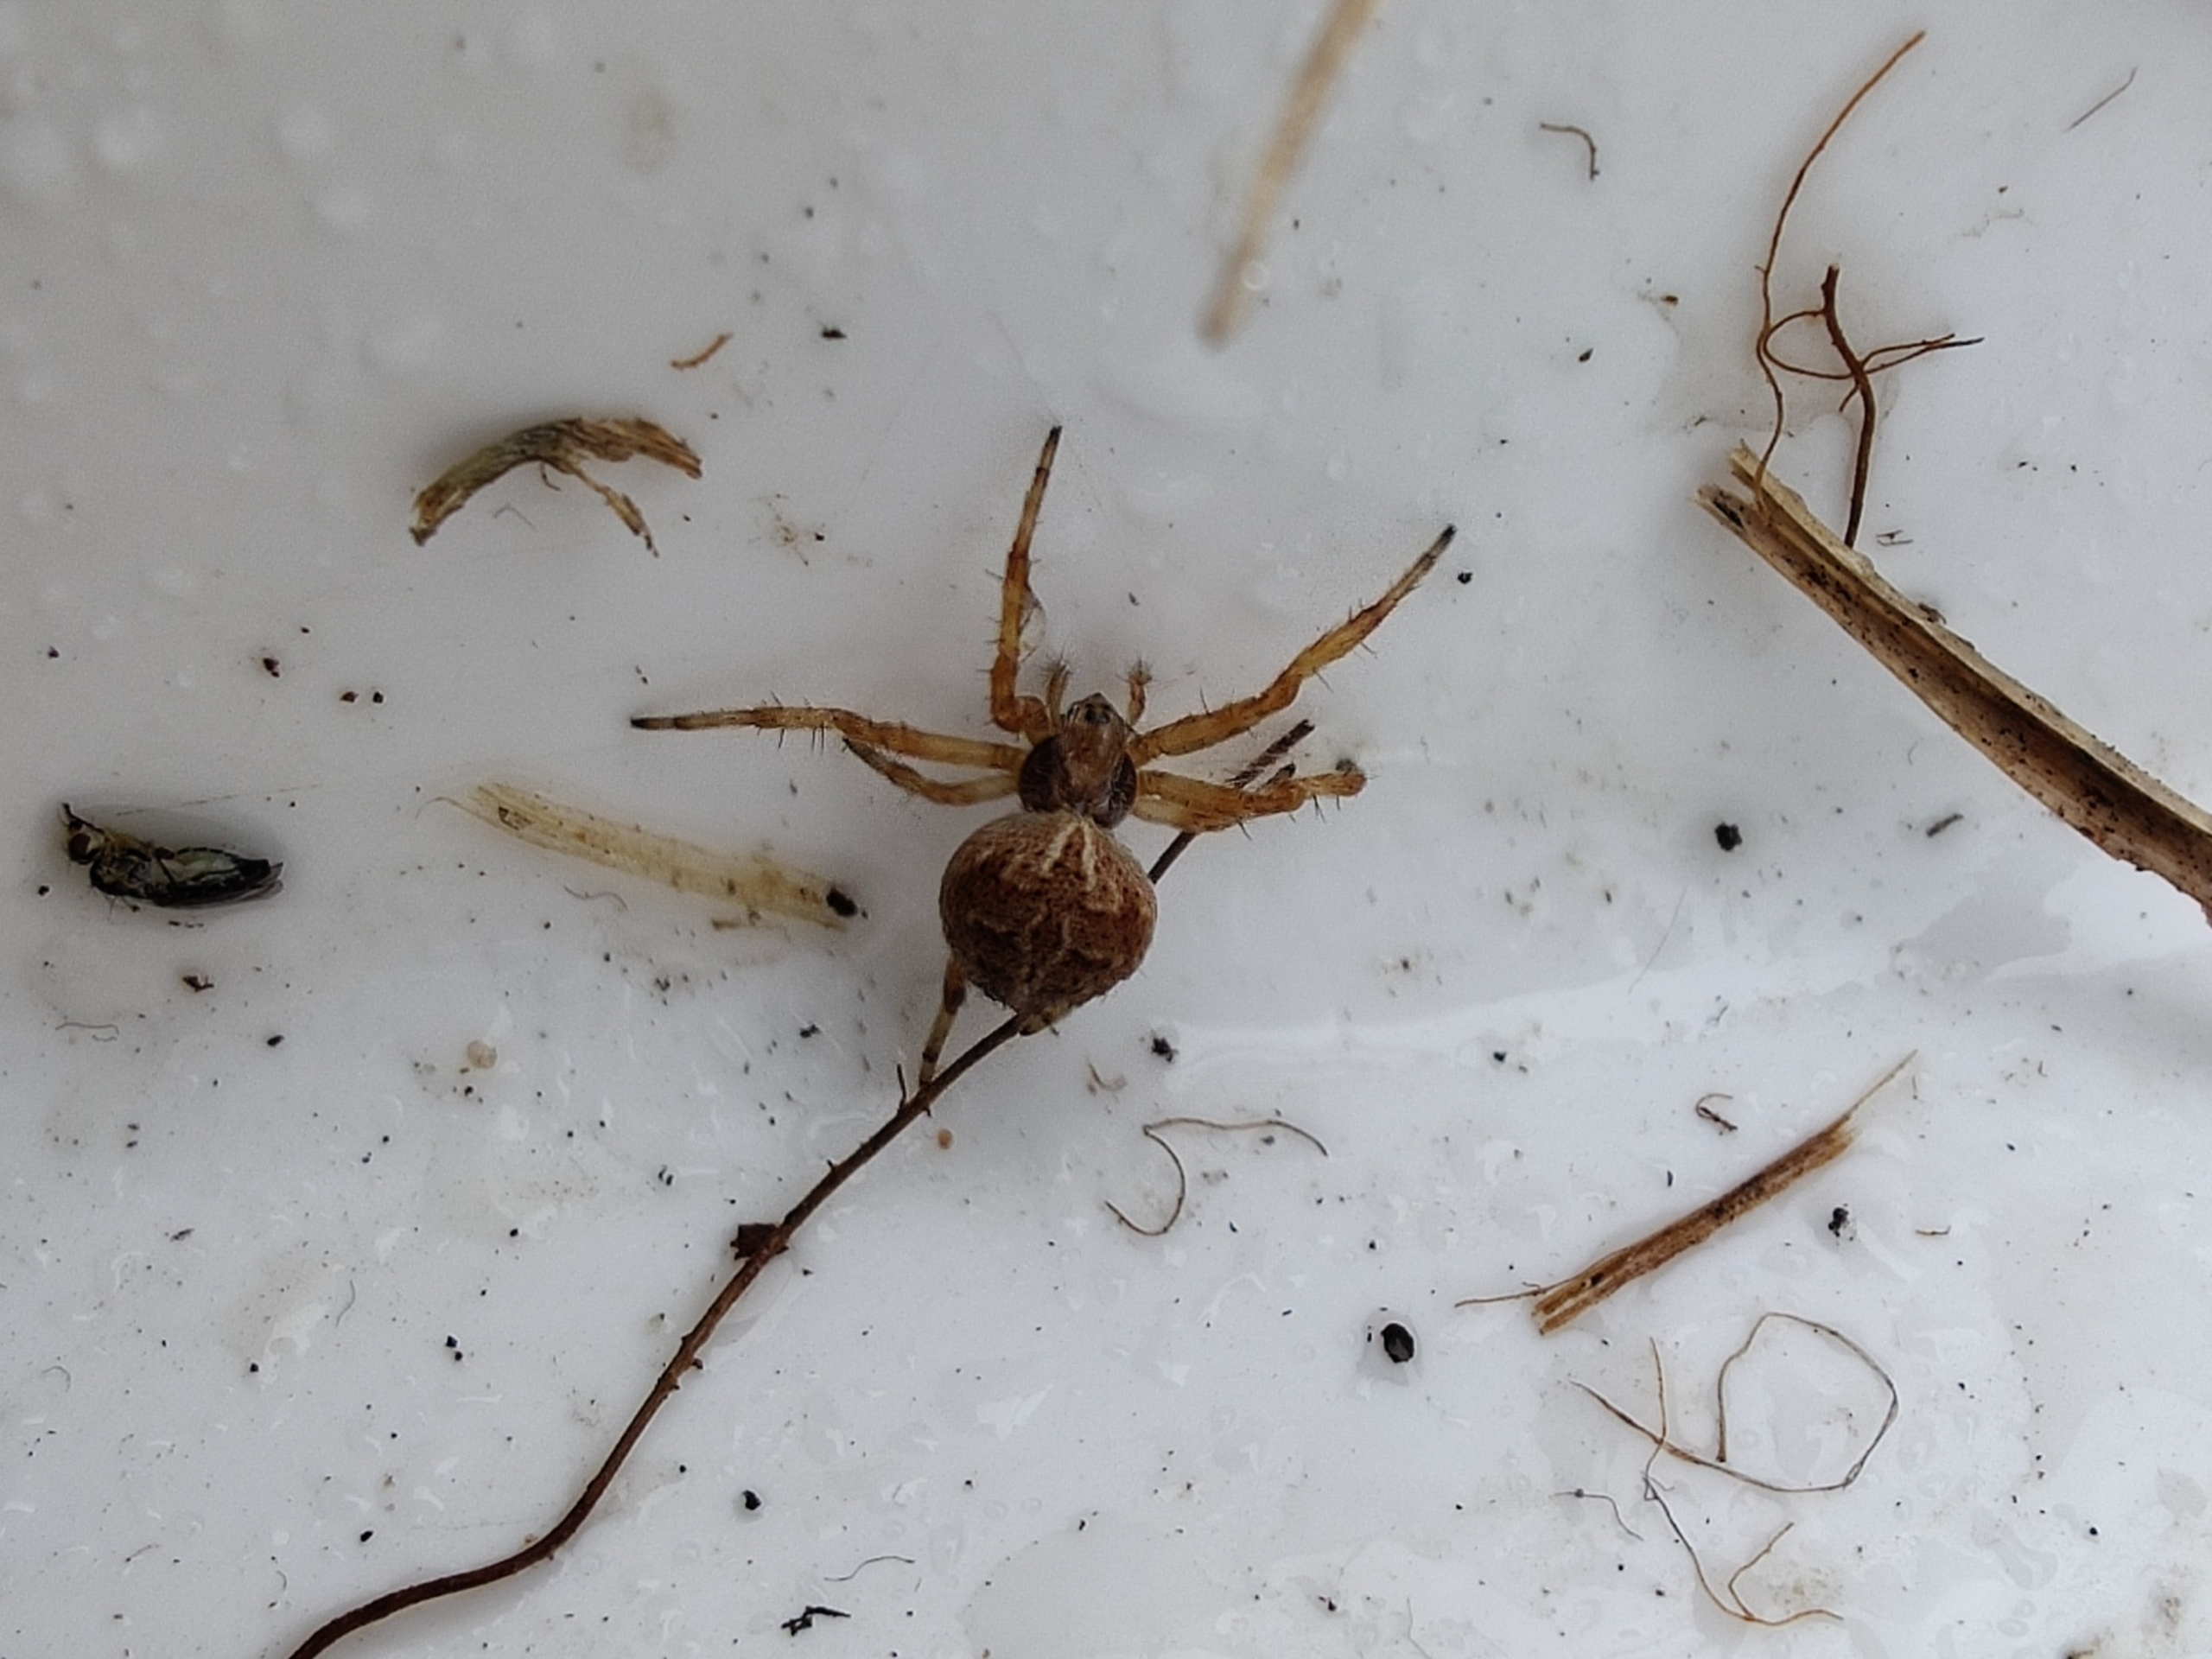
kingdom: Animalia
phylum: Arthropoda
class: Arachnida
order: Araneae
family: Araneidae
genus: Agalenatea
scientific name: Agalenatea redii
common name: Lodden hjulspinder
